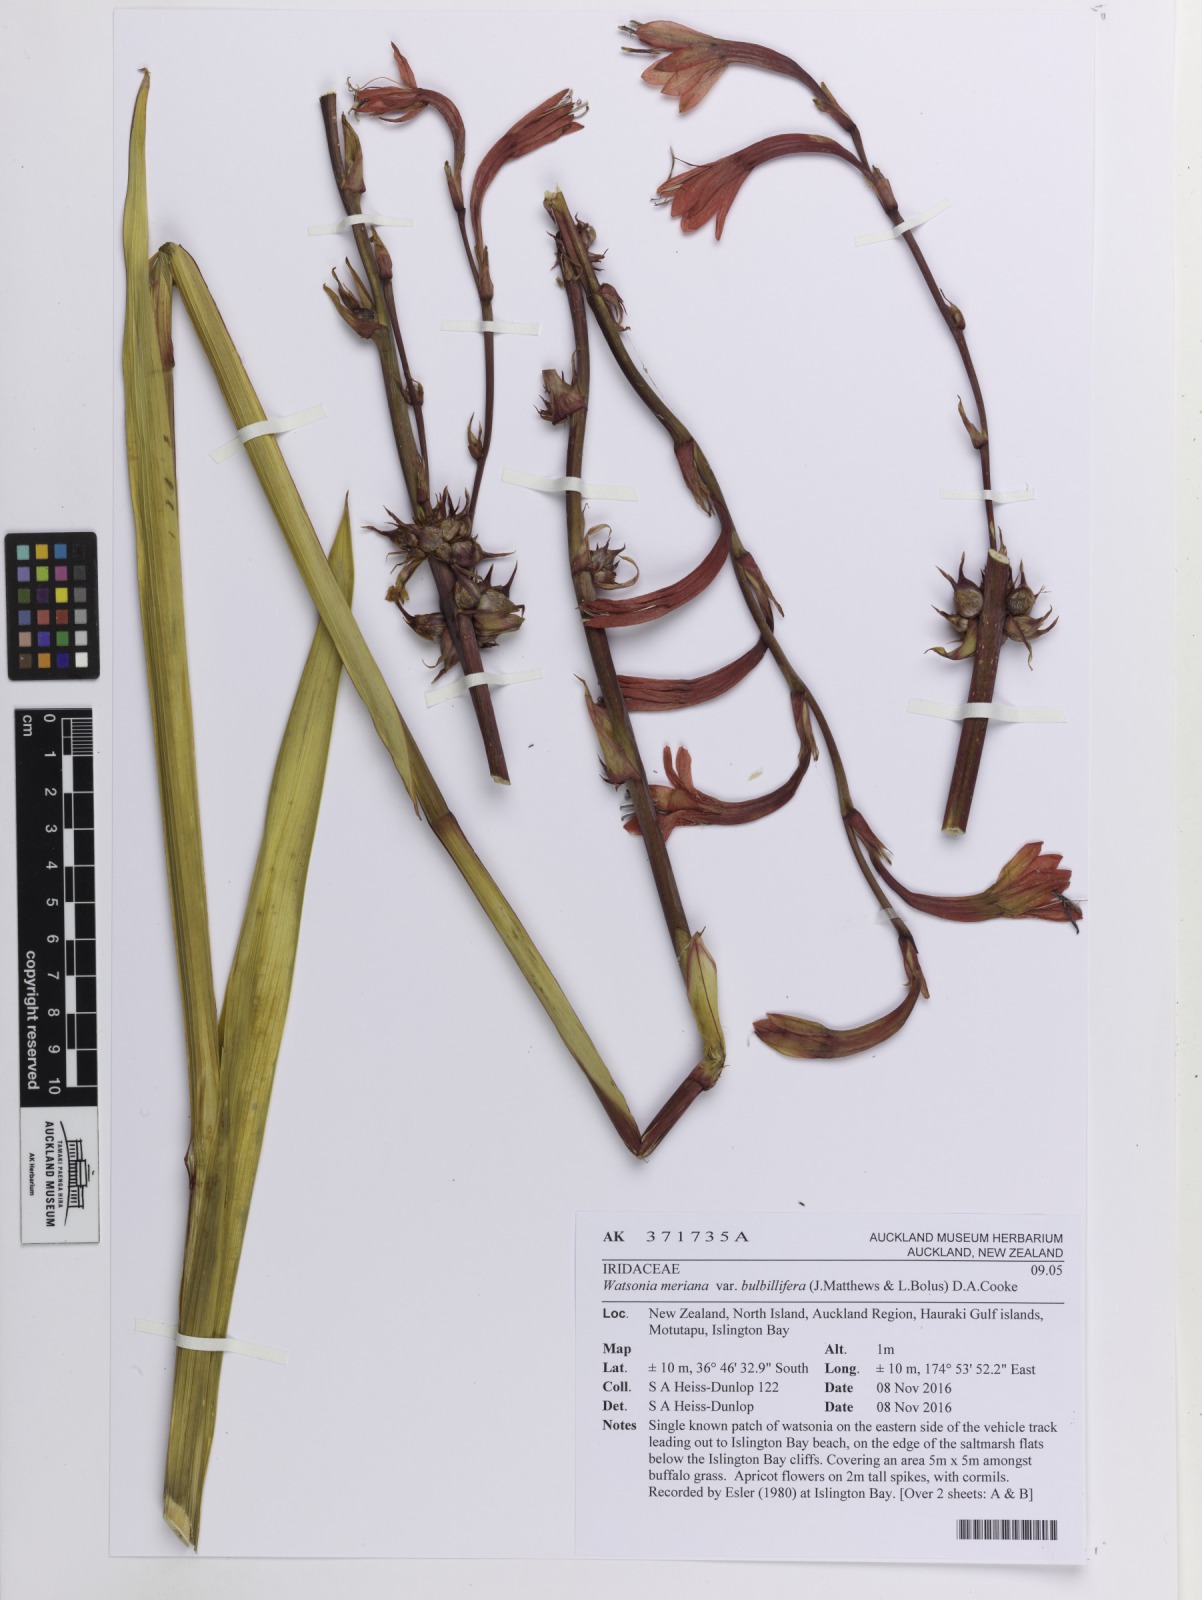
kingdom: Plantae
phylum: Tracheophyta
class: Liliopsida
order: Asparagales
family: Iridaceae
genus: Watsonia
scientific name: Watsonia meriana
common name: Bulbil bugle-lily
